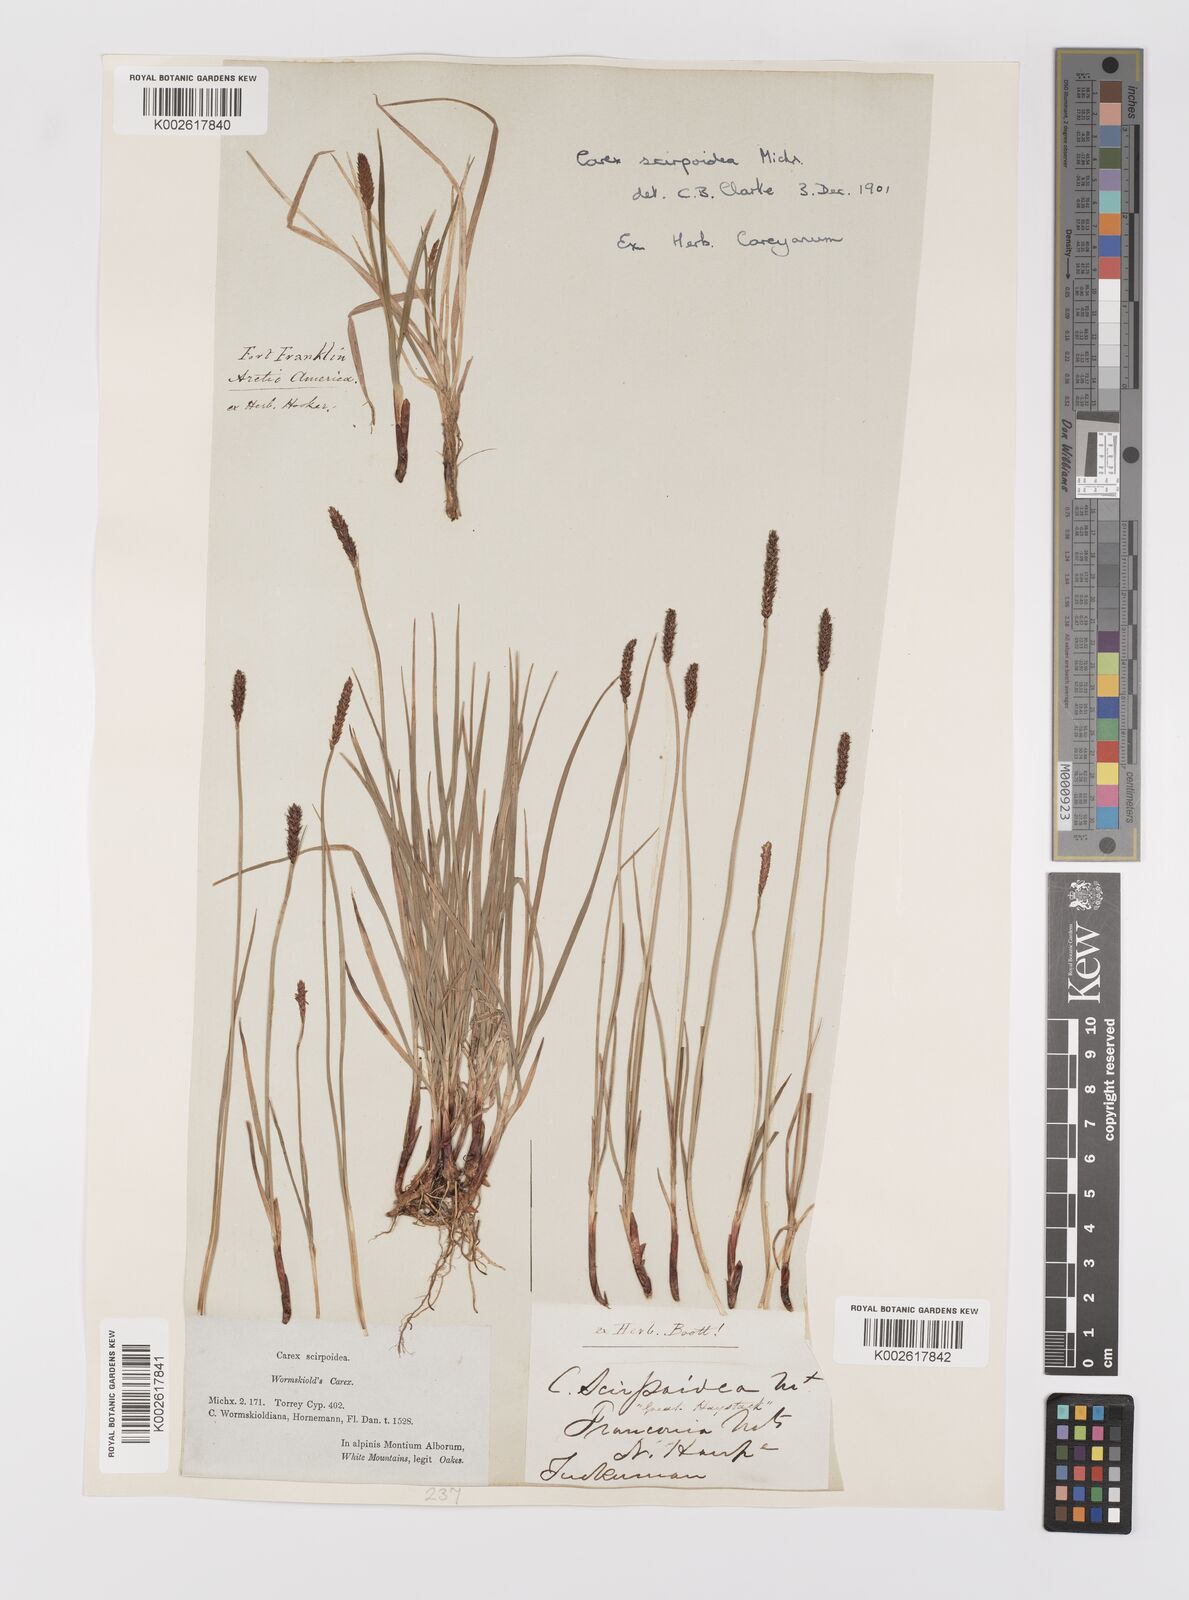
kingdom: Plantae
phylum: Tracheophyta
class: Liliopsida
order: Poales
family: Cyperaceae
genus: Carex
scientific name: Carex scirpoidea
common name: Canada single-spike sedge
